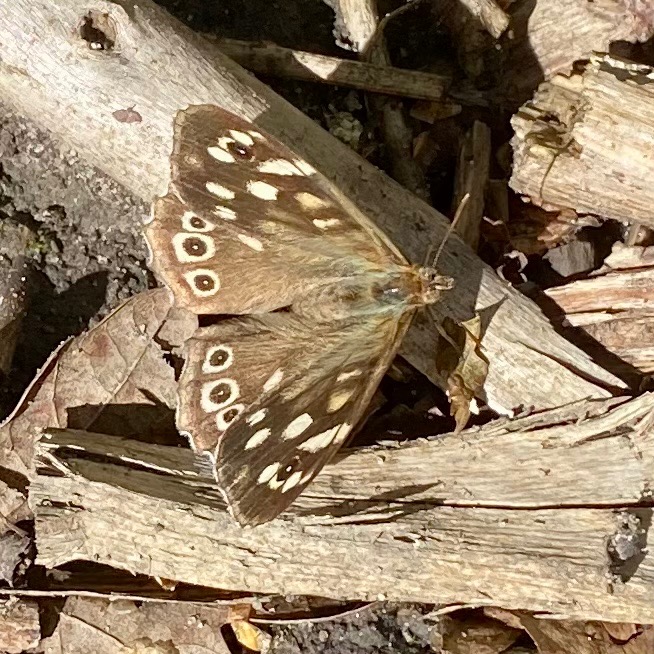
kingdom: Animalia
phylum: Arthropoda
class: Insecta
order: Lepidoptera
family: Nymphalidae
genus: Pararge
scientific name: Pararge aegeria
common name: Skovrandøje
